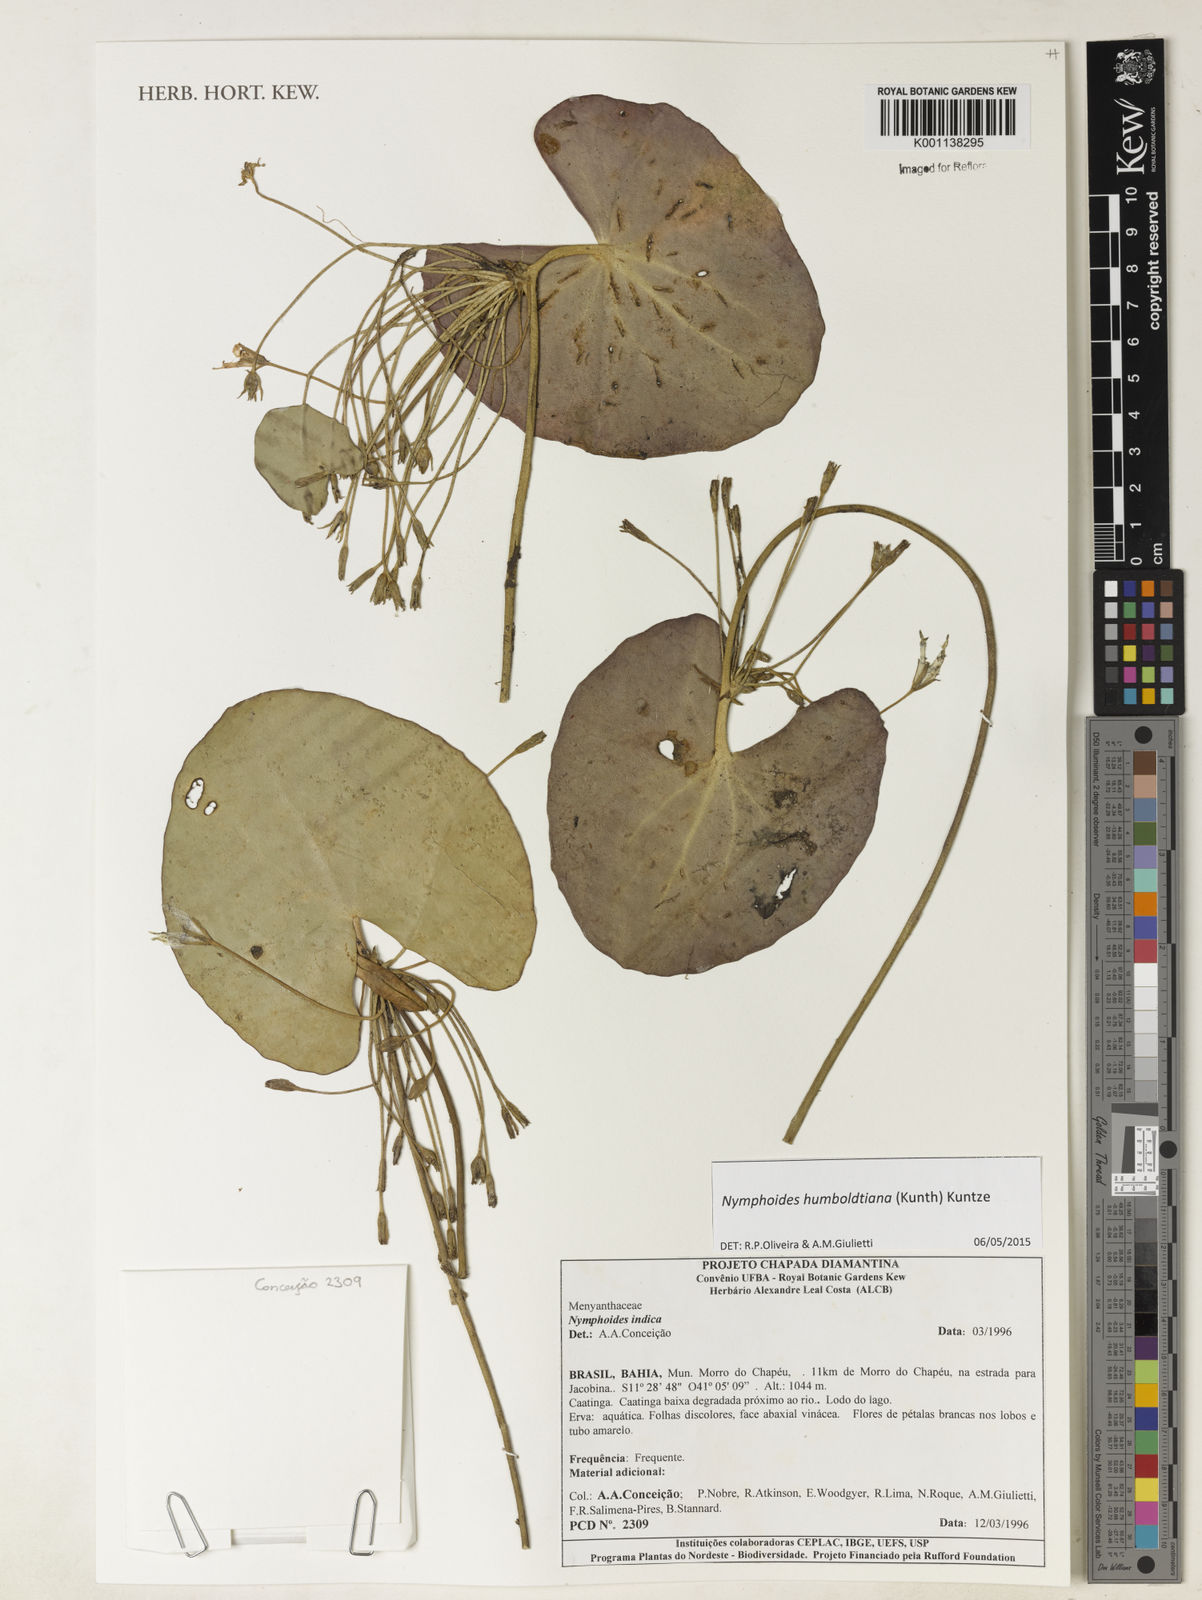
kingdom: Plantae
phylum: Tracheophyta
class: Magnoliopsida
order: Asterales
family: Menyanthaceae
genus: Nymphoides
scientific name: Nymphoides
